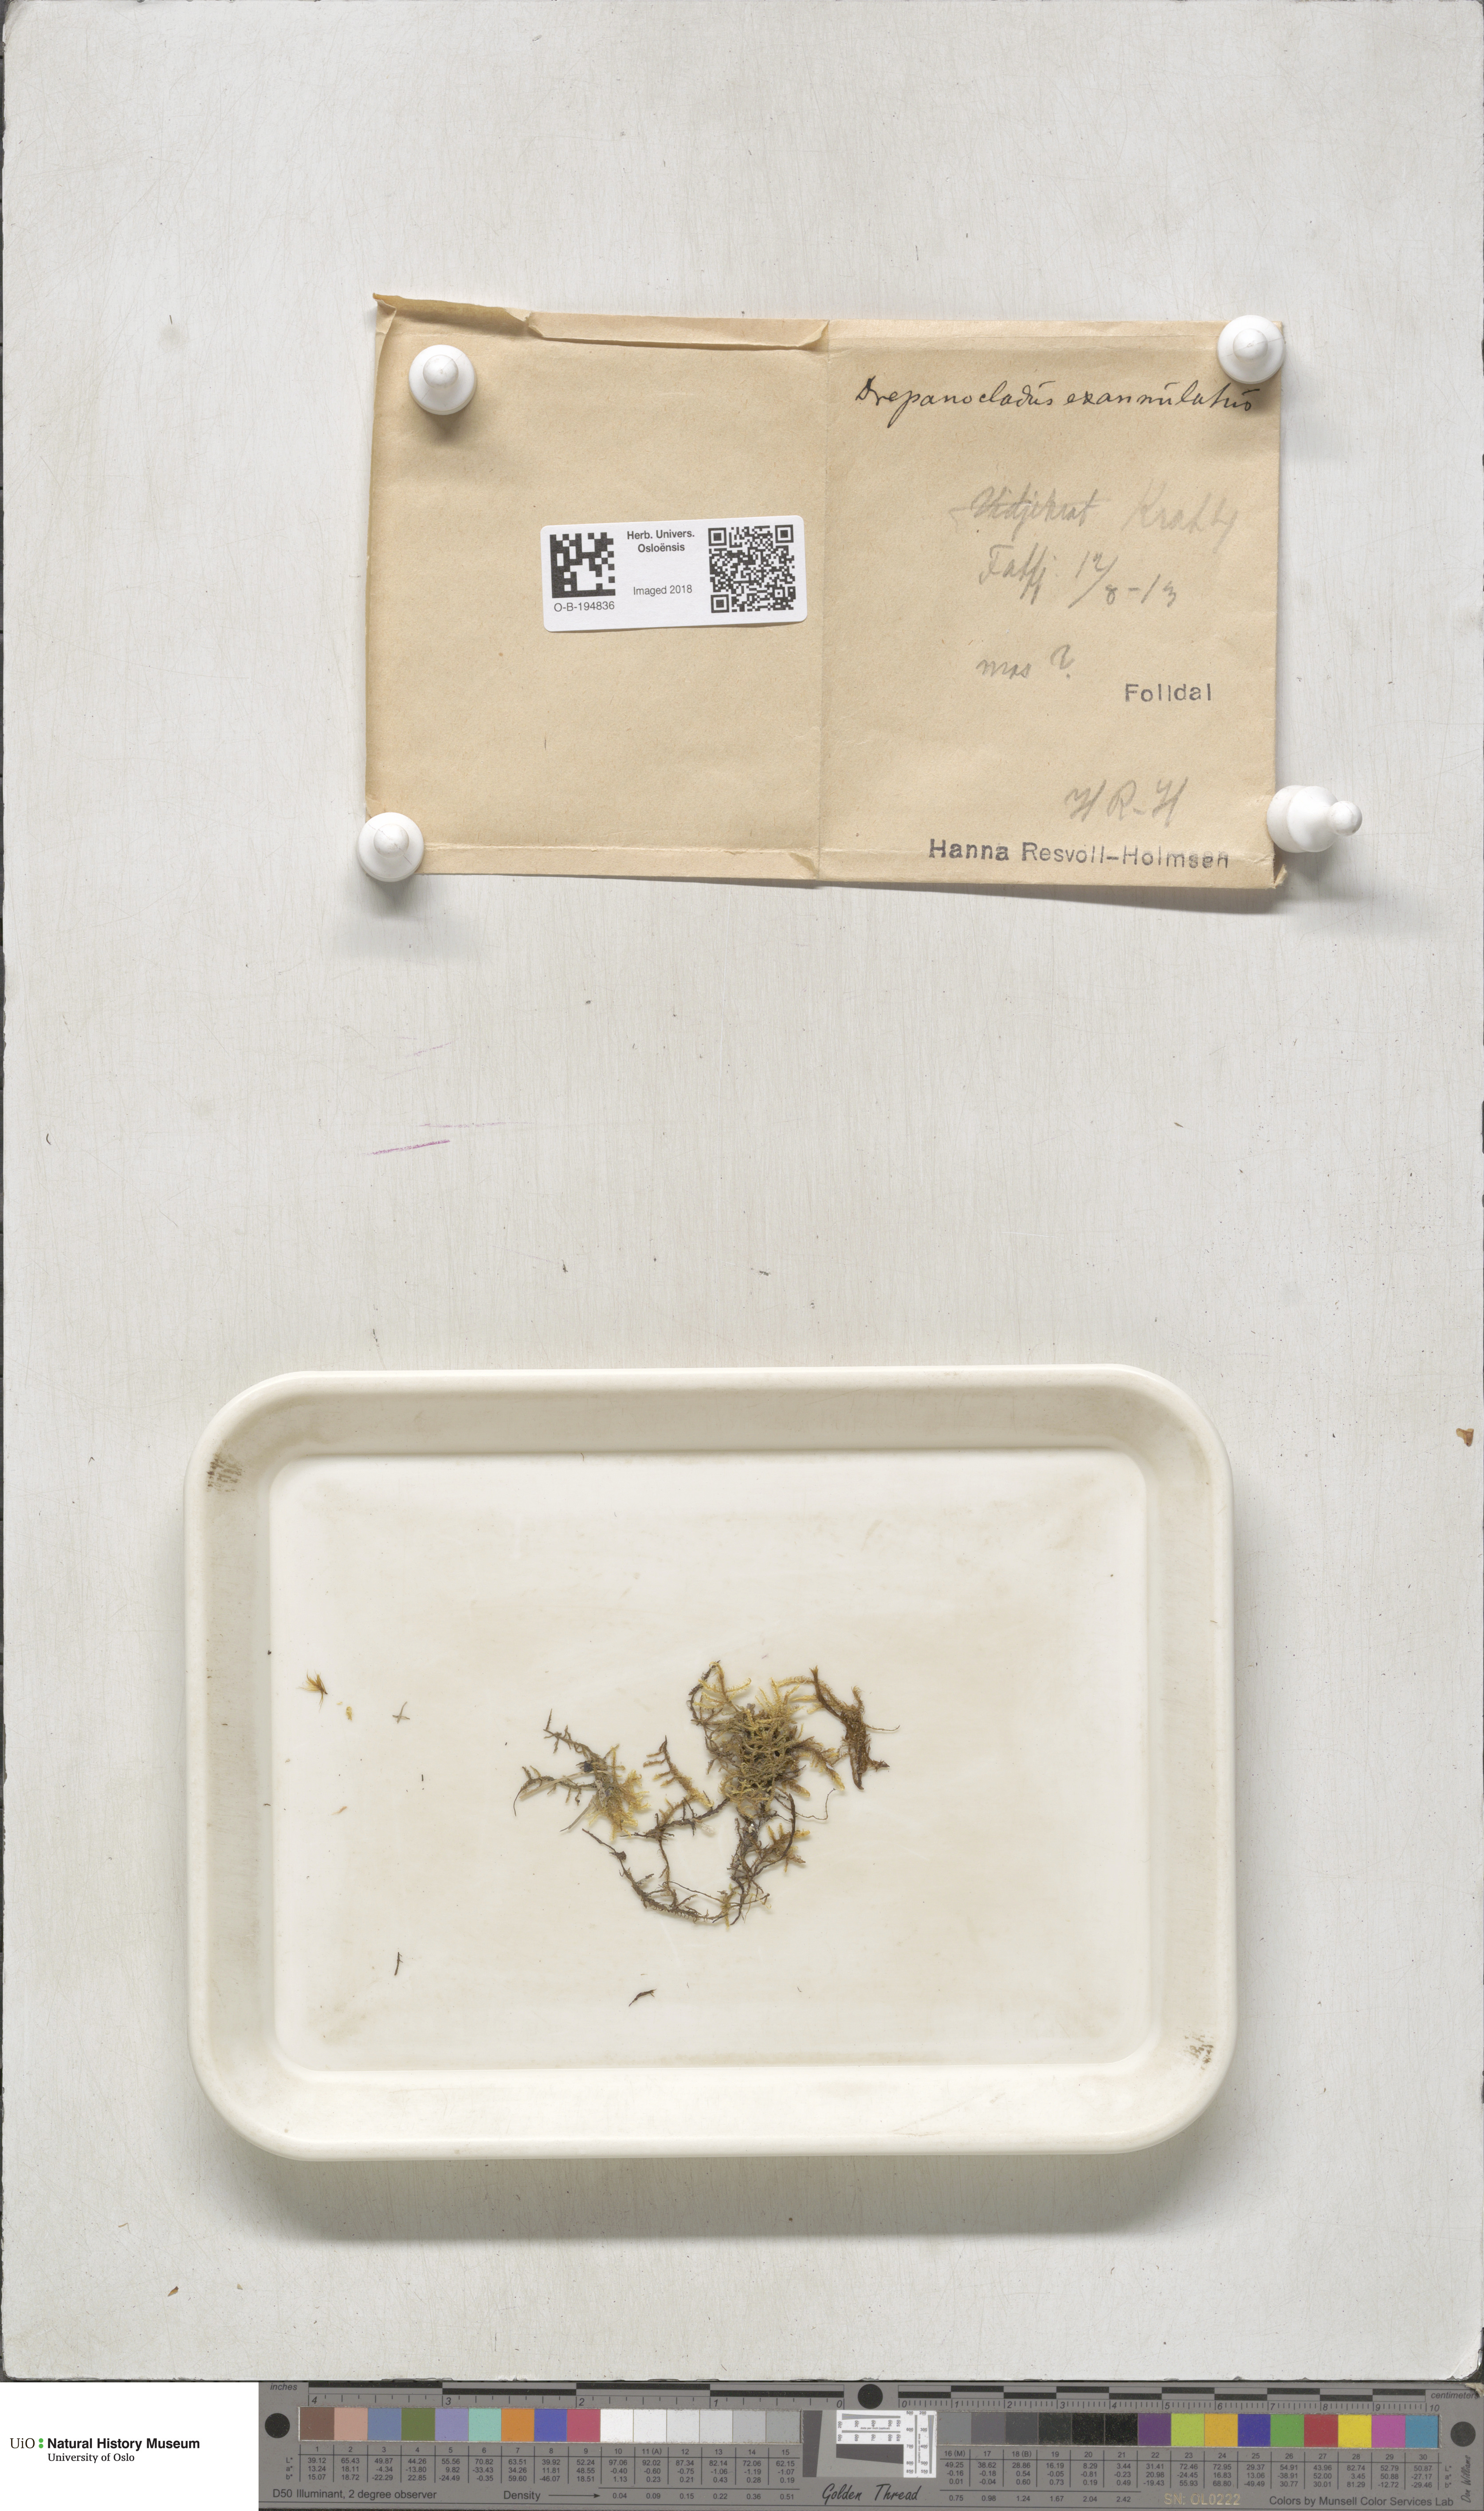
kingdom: Plantae
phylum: Bryophyta
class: Bryopsida
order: Hypnales
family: Calliergonaceae
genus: Sarmentypnum
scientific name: Sarmentypnum exannulatum
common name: Ringless spoon moss
